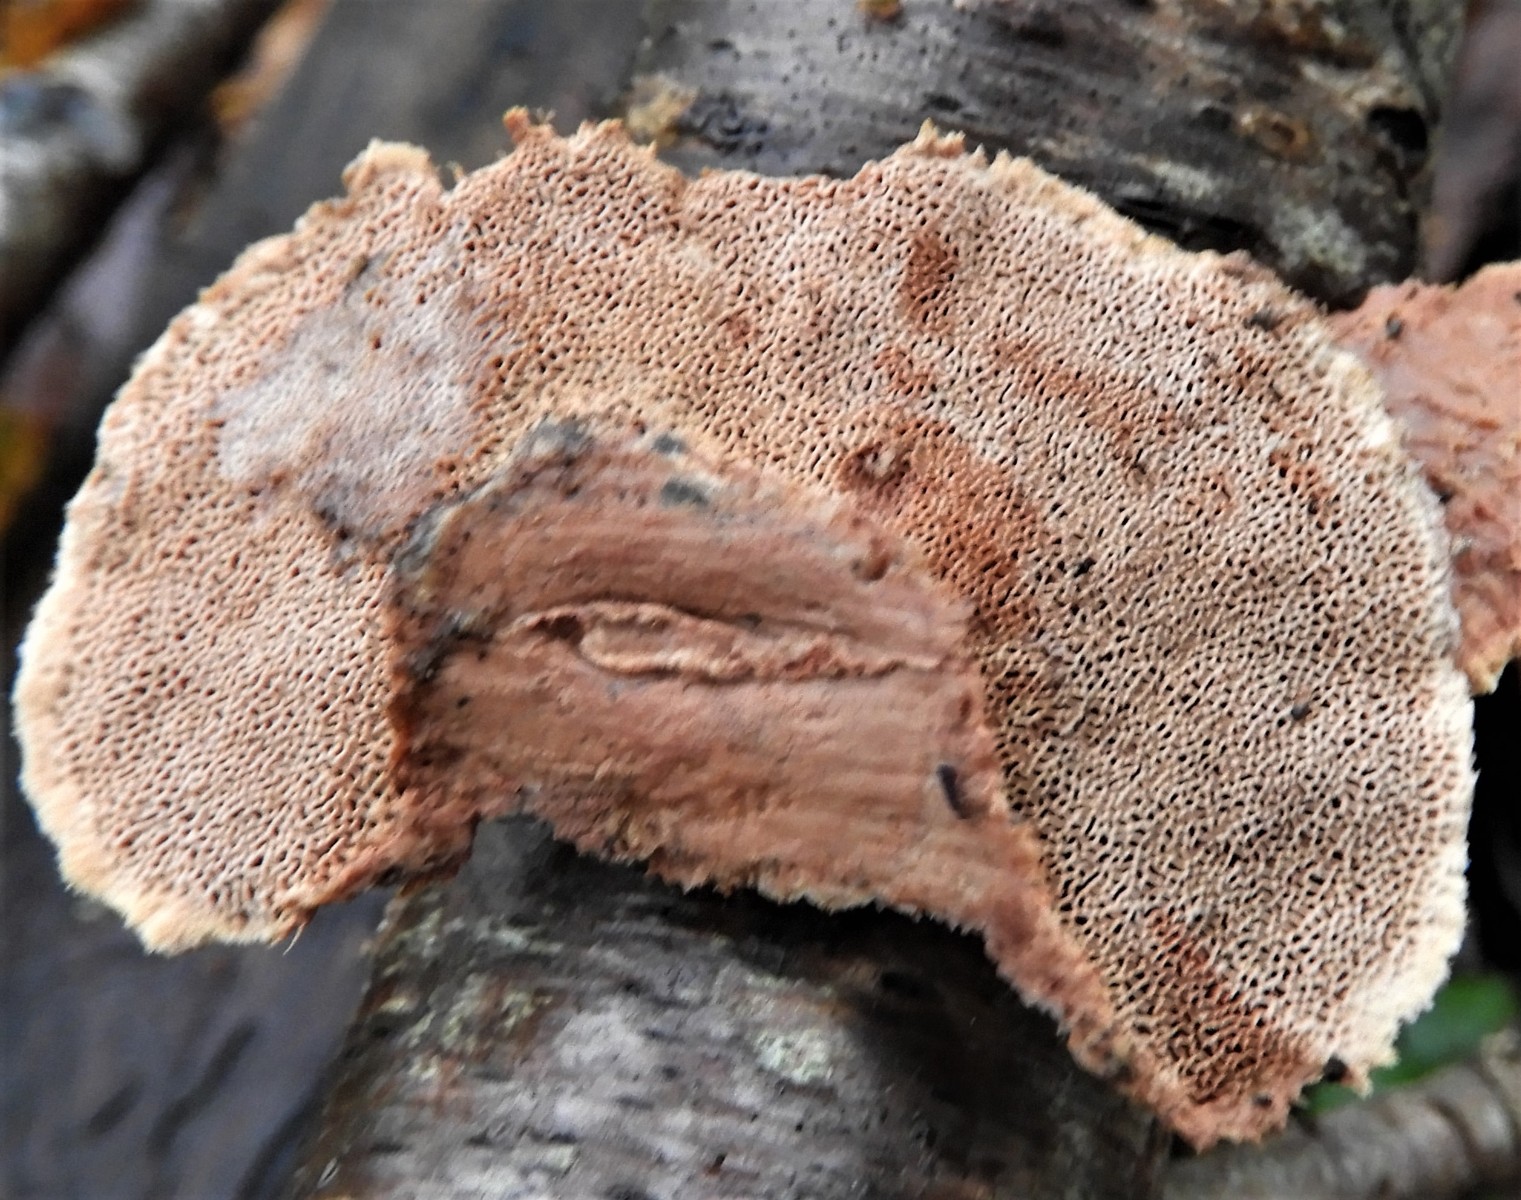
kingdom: Fungi
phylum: Basidiomycota
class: Agaricomycetes
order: Polyporales
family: Phanerochaetaceae
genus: Hapalopilus
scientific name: Hapalopilus rutilans
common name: rødlig okkerporesvamp
